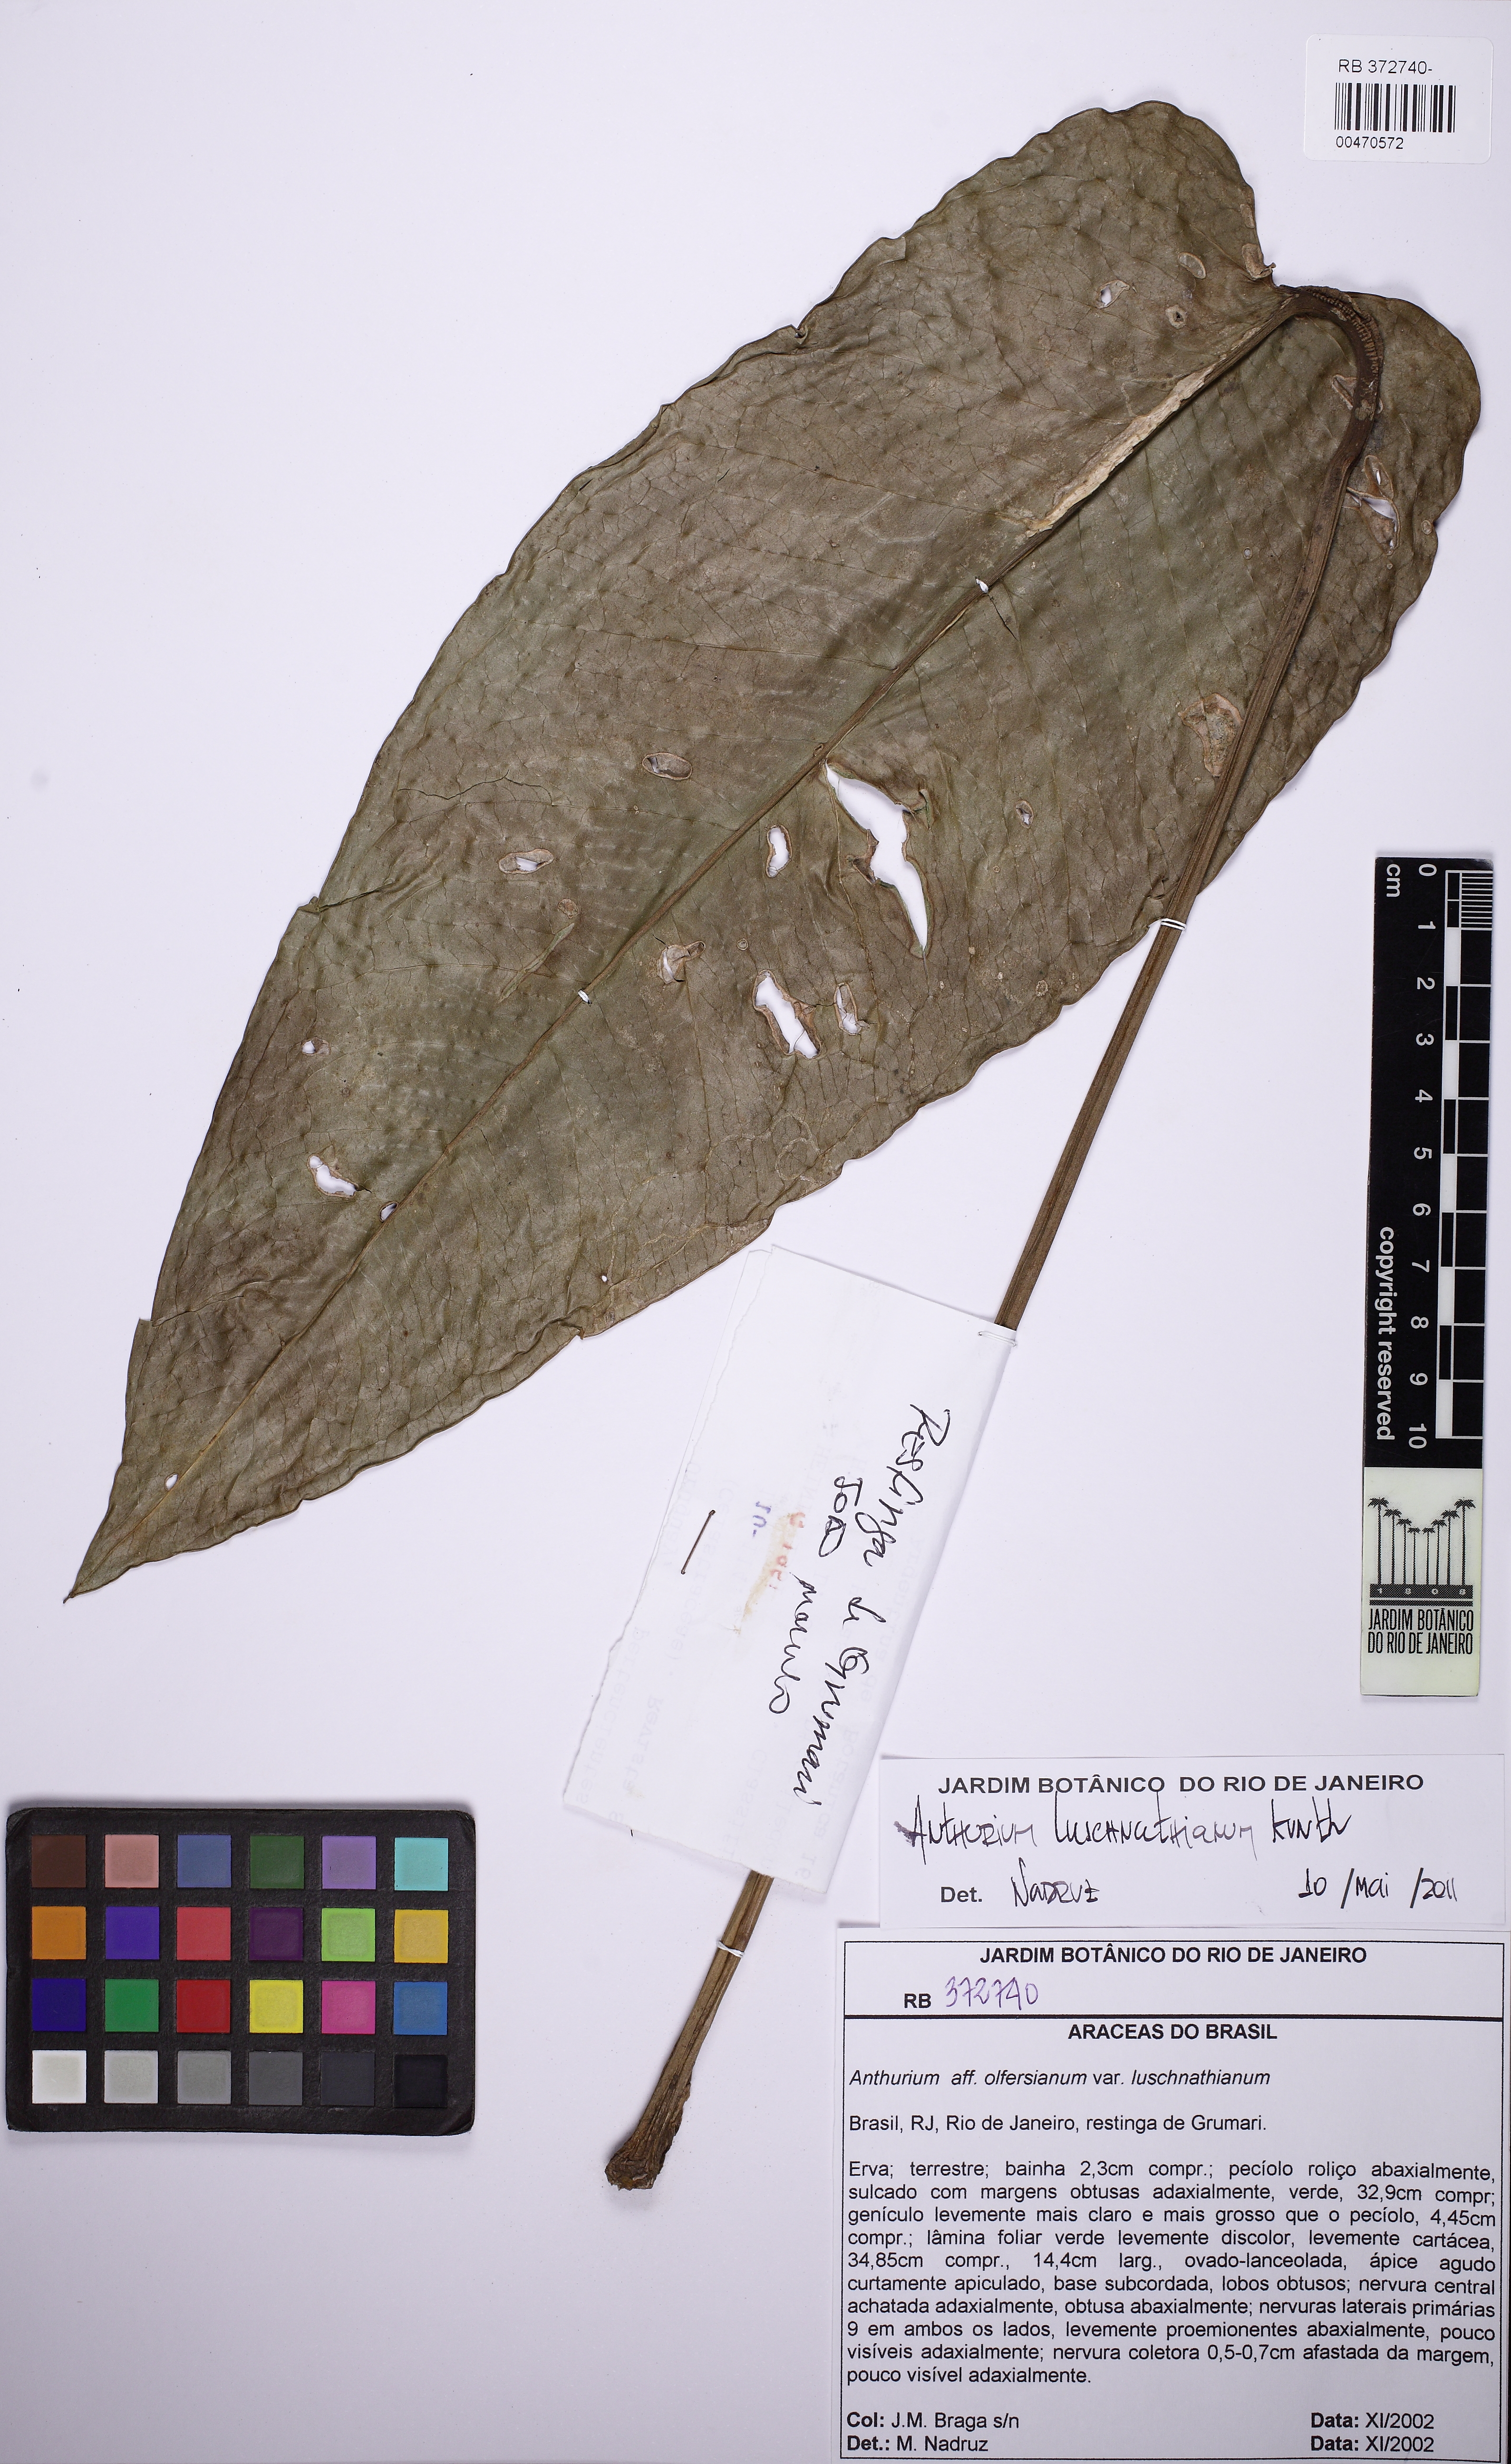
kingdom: Plantae
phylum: Tracheophyta
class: Liliopsida
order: Alismatales
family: Araceae
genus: Anthurium
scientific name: Anthurium luschnathianum
